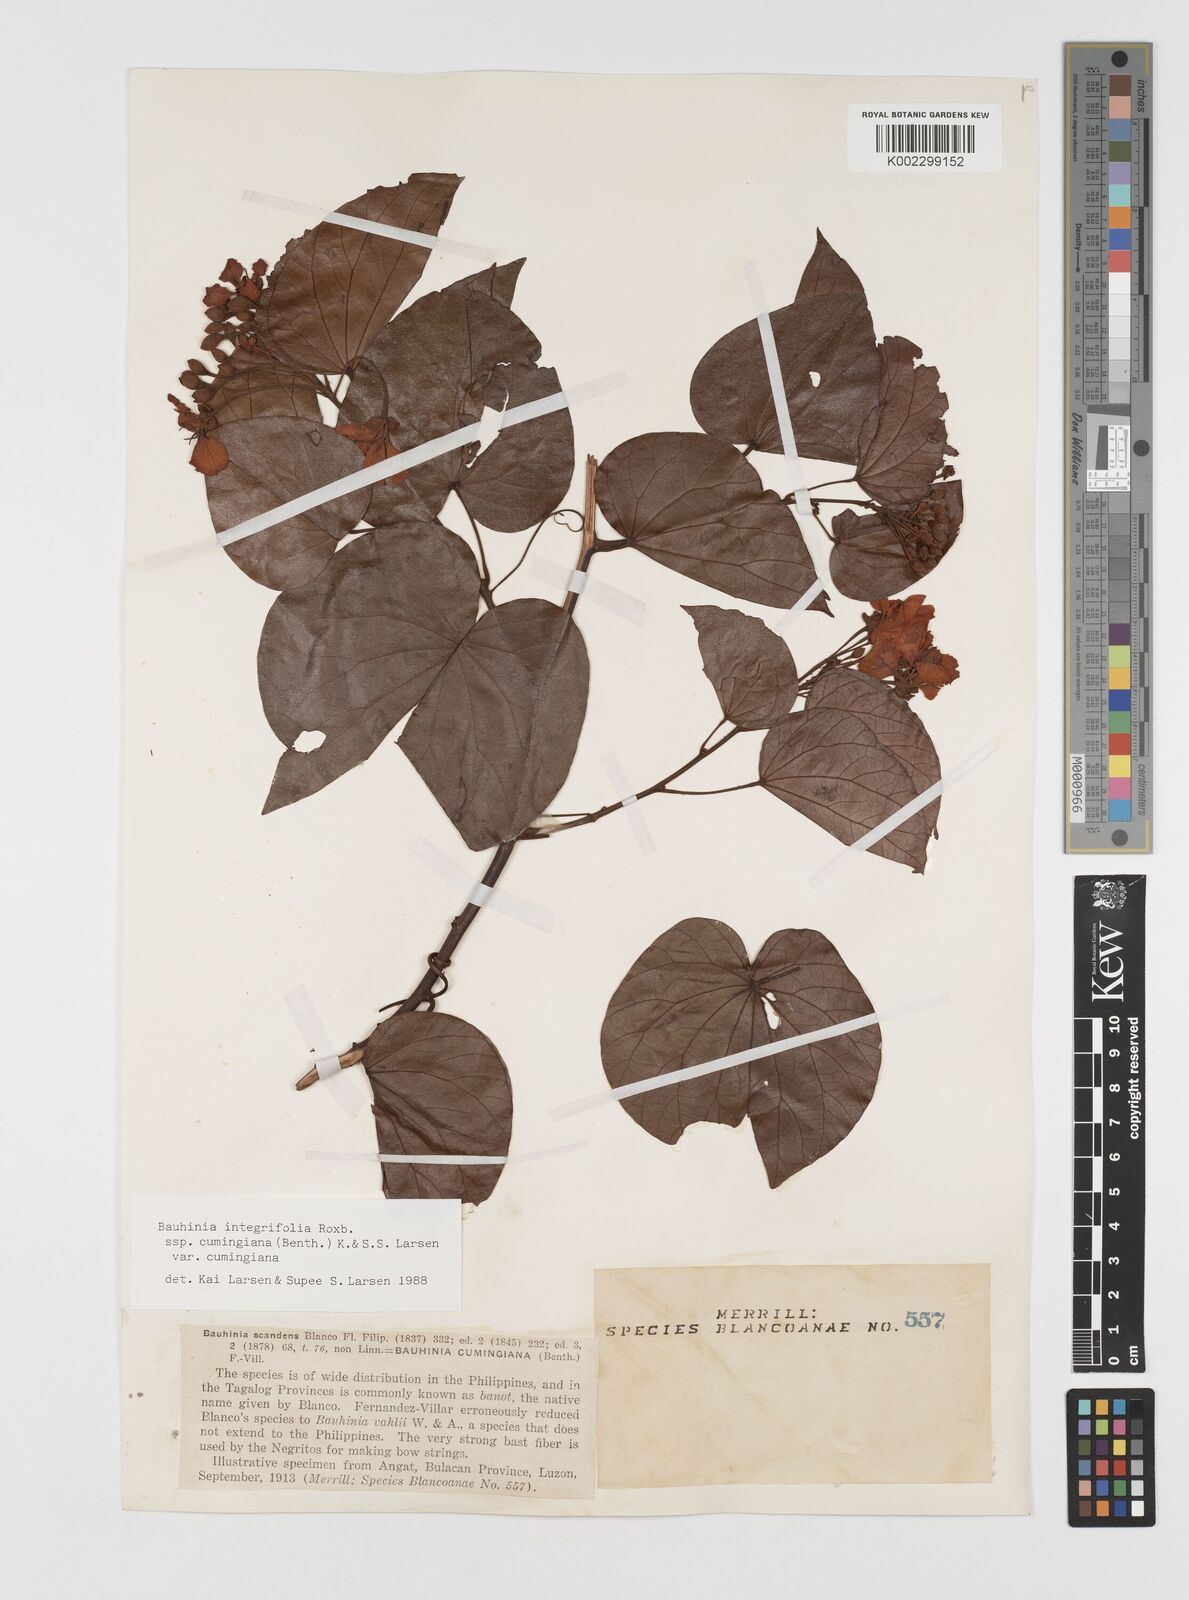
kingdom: Plantae
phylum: Tracheophyta
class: Magnoliopsida
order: Fabales
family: Fabaceae
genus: Phanera
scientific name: Phanera integrifolia
